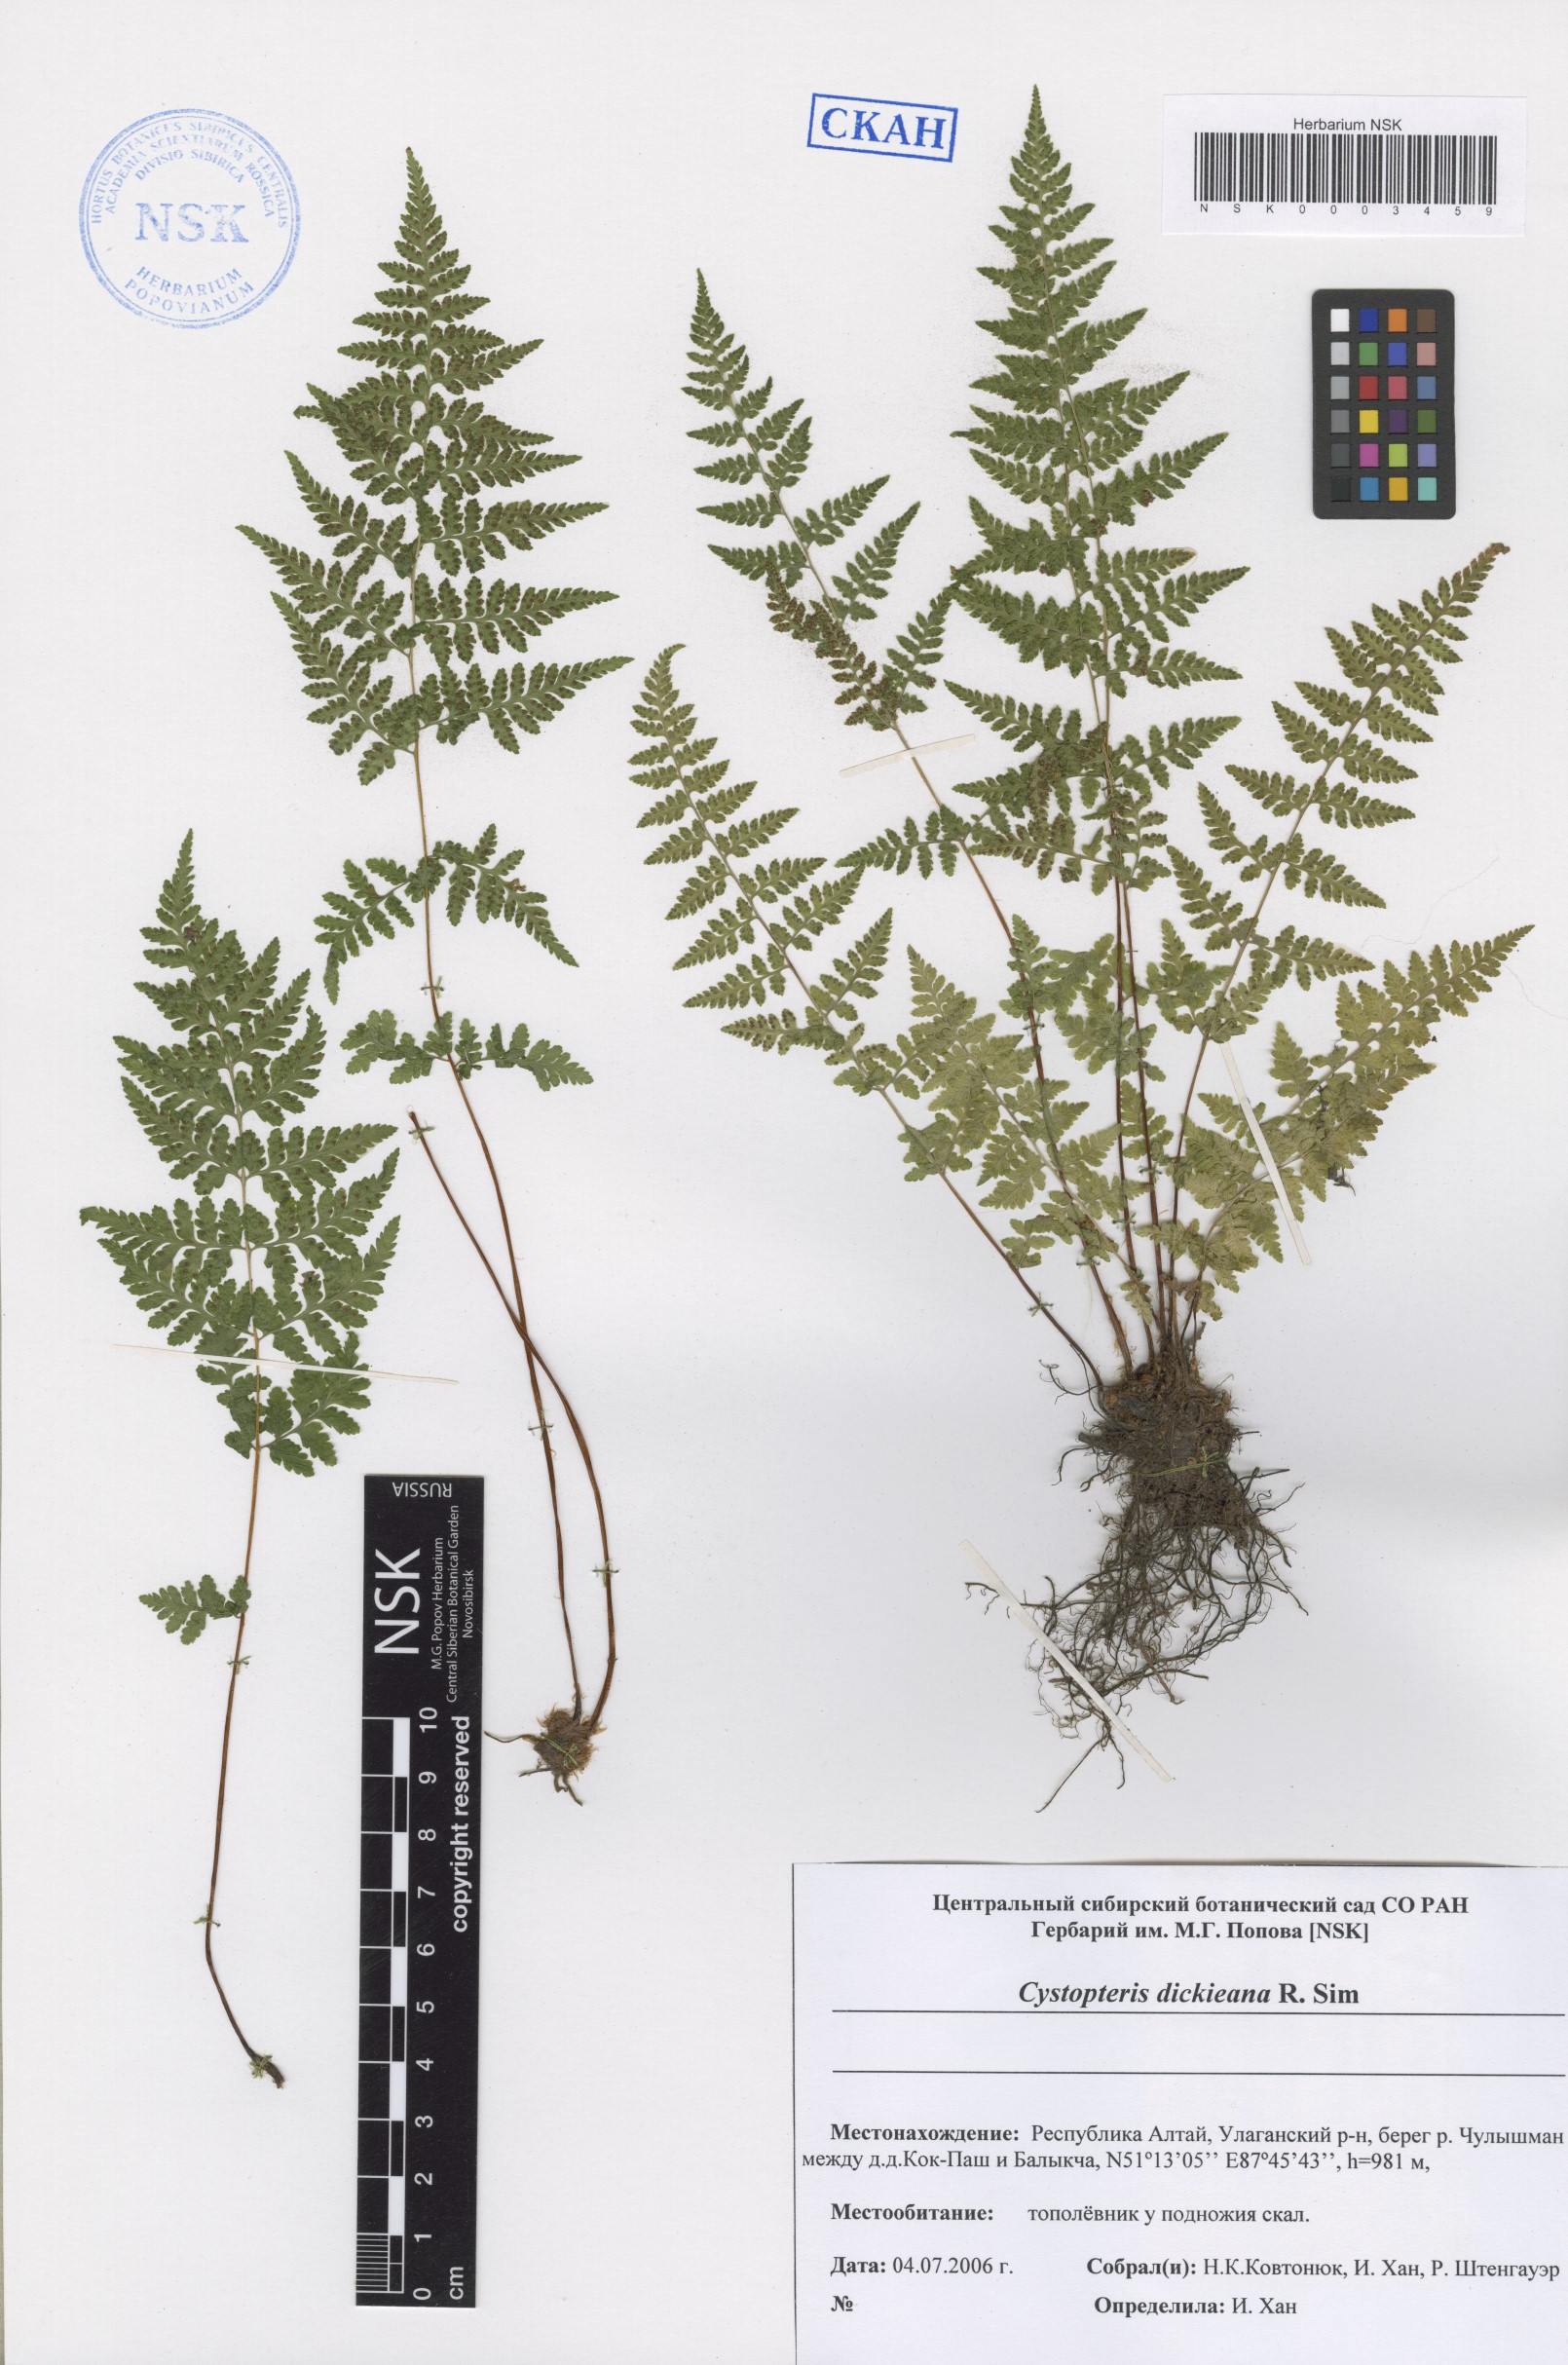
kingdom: Plantae
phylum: Tracheophyta
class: Polypodiopsida
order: Polypodiales
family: Cystopteridaceae
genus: Cystopteris
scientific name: Cystopteris dickieana
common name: Dickie's bladder-fern
